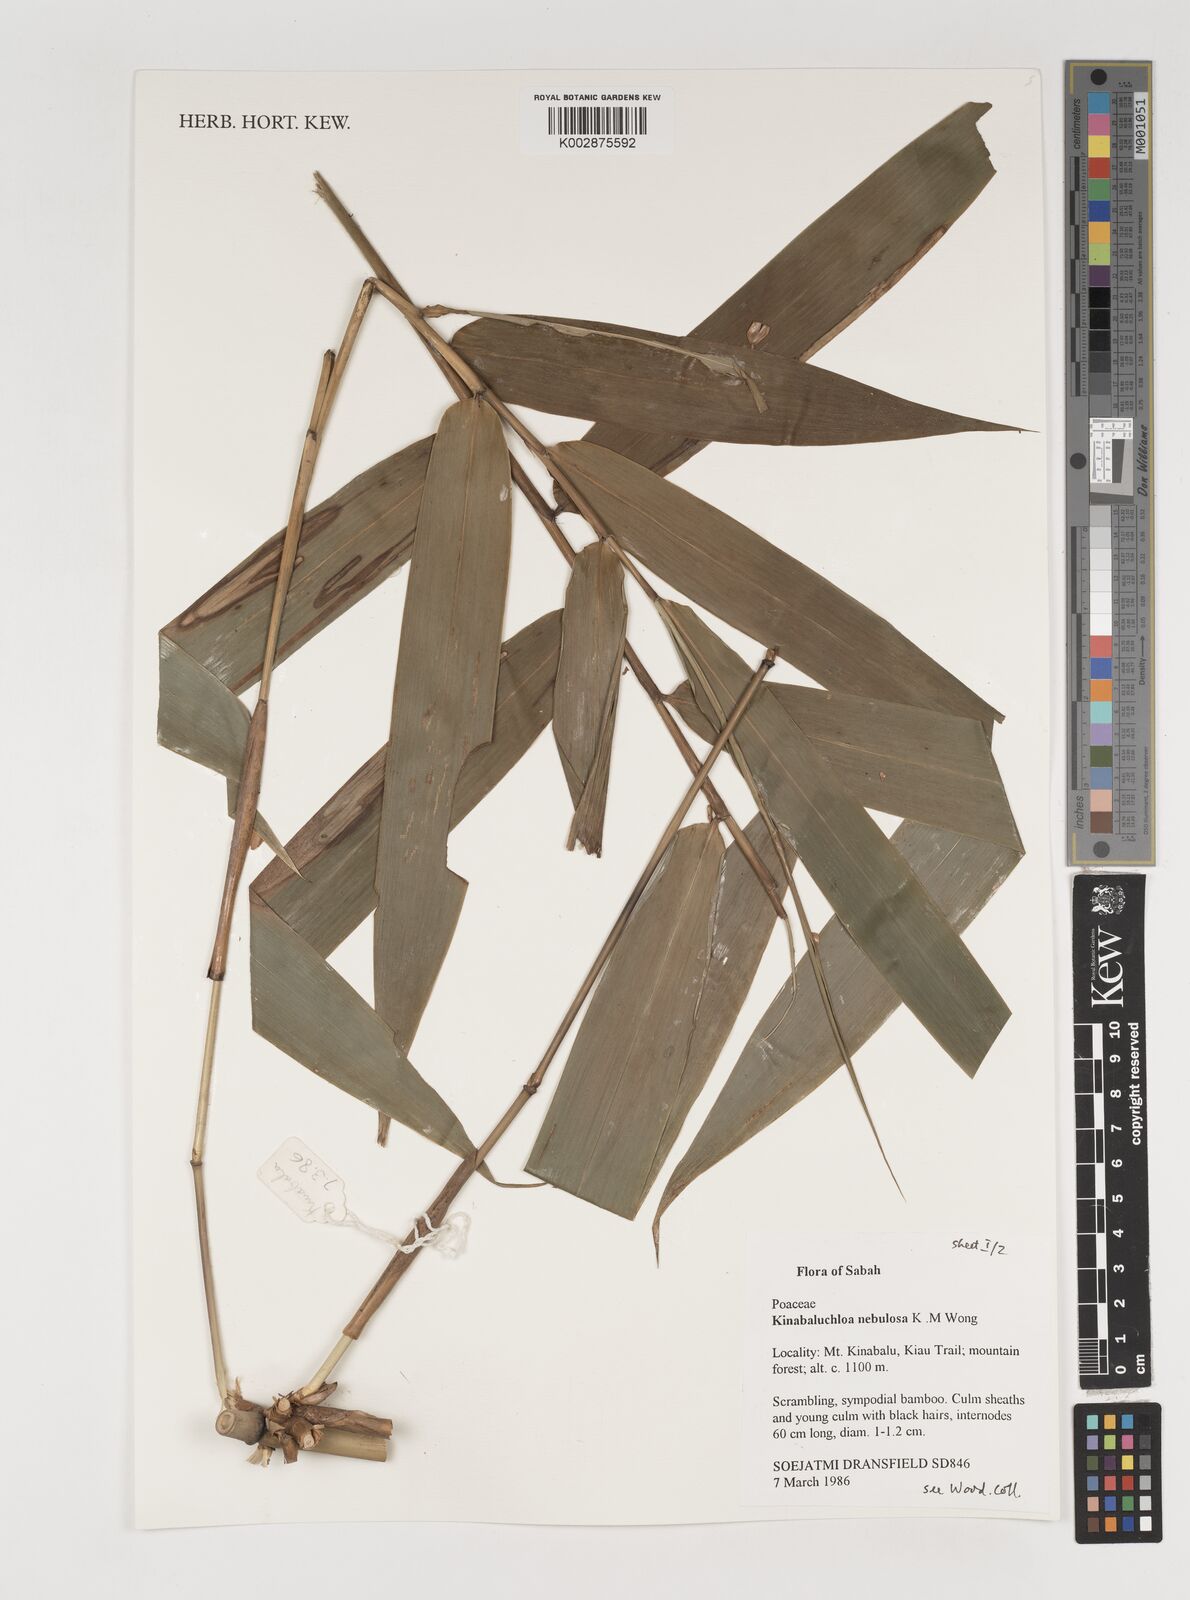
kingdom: Plantae
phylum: Tracheophyta
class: Liliopsida
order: Poales
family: Poaceae
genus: Kinabaluchloa
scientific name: Kinabaluchloa nebulosa
